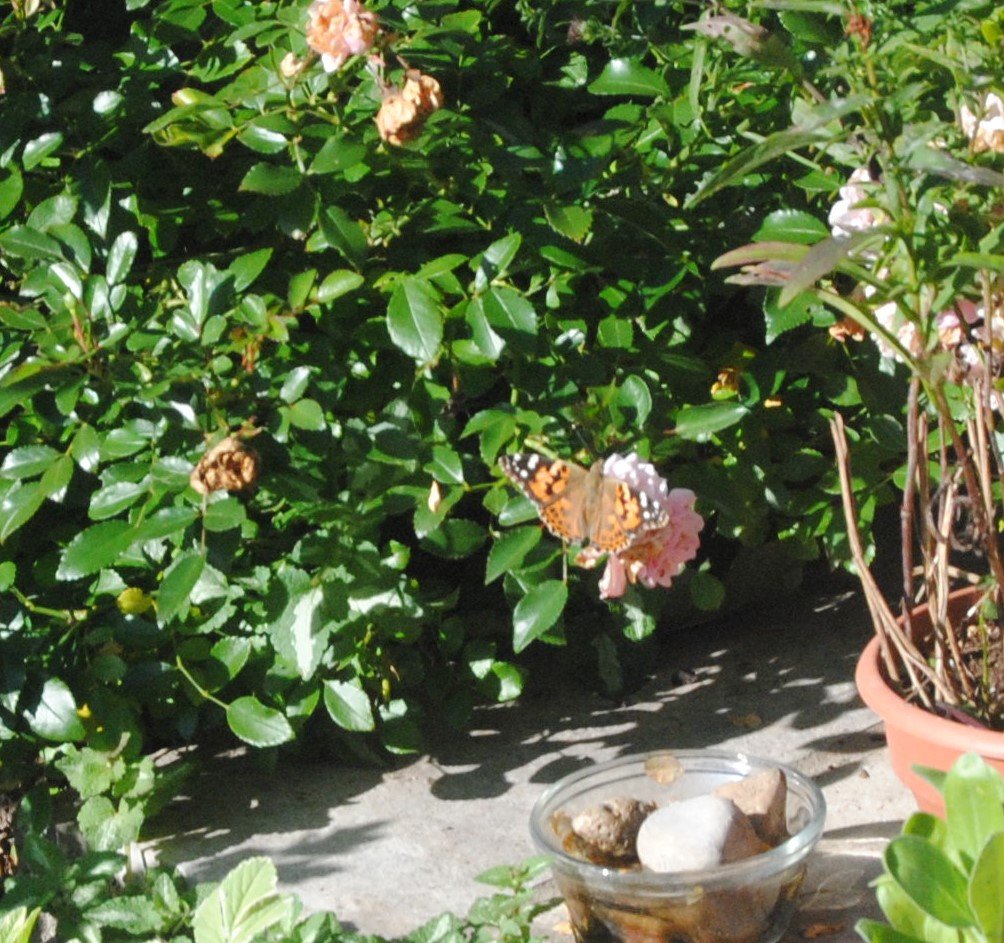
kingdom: Animalia
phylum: Arthropoda
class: Insecta
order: Lepidoptera
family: Nymphalidae
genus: Vanessa
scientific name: Vanessa cardui
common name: Painted Lady
